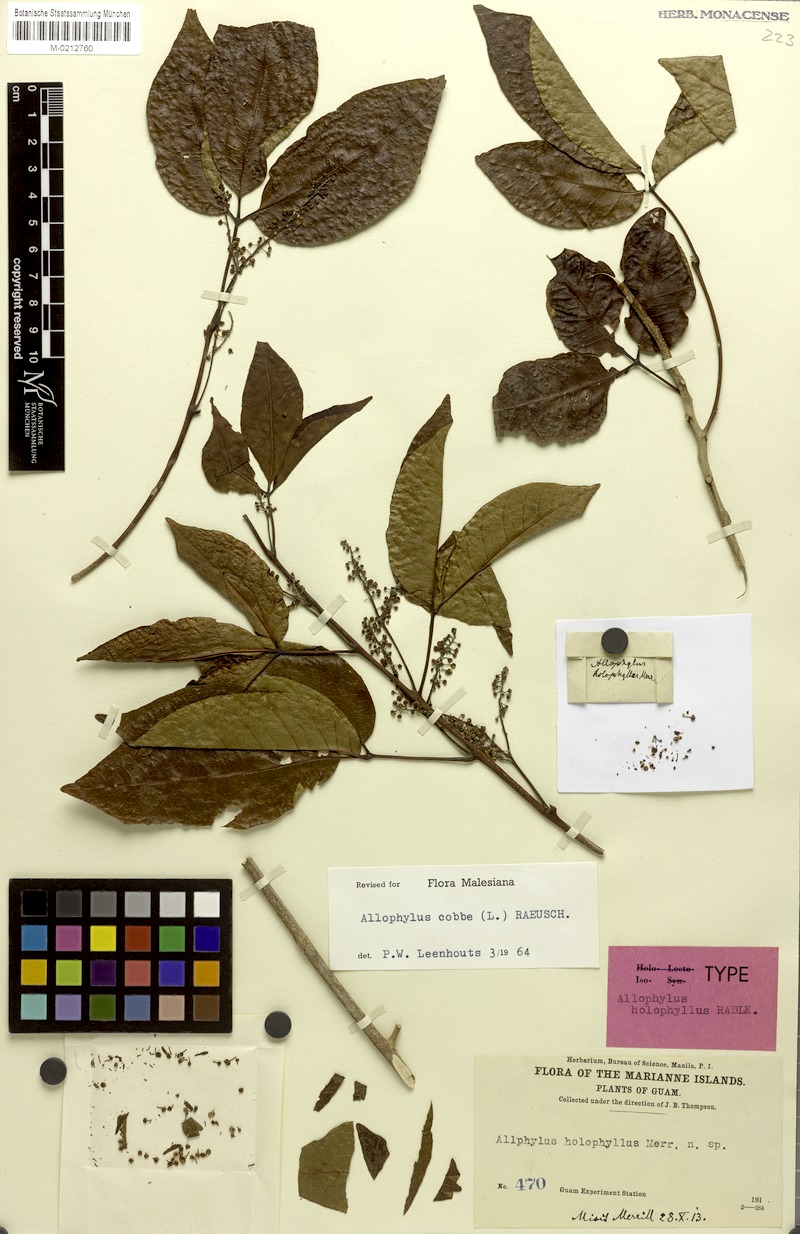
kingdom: Plantae
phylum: Tracheophyta
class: Magnoliopsida
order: Sapindales
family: Sapindaceae
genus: Allophylus
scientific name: Allophylus holophyllus
